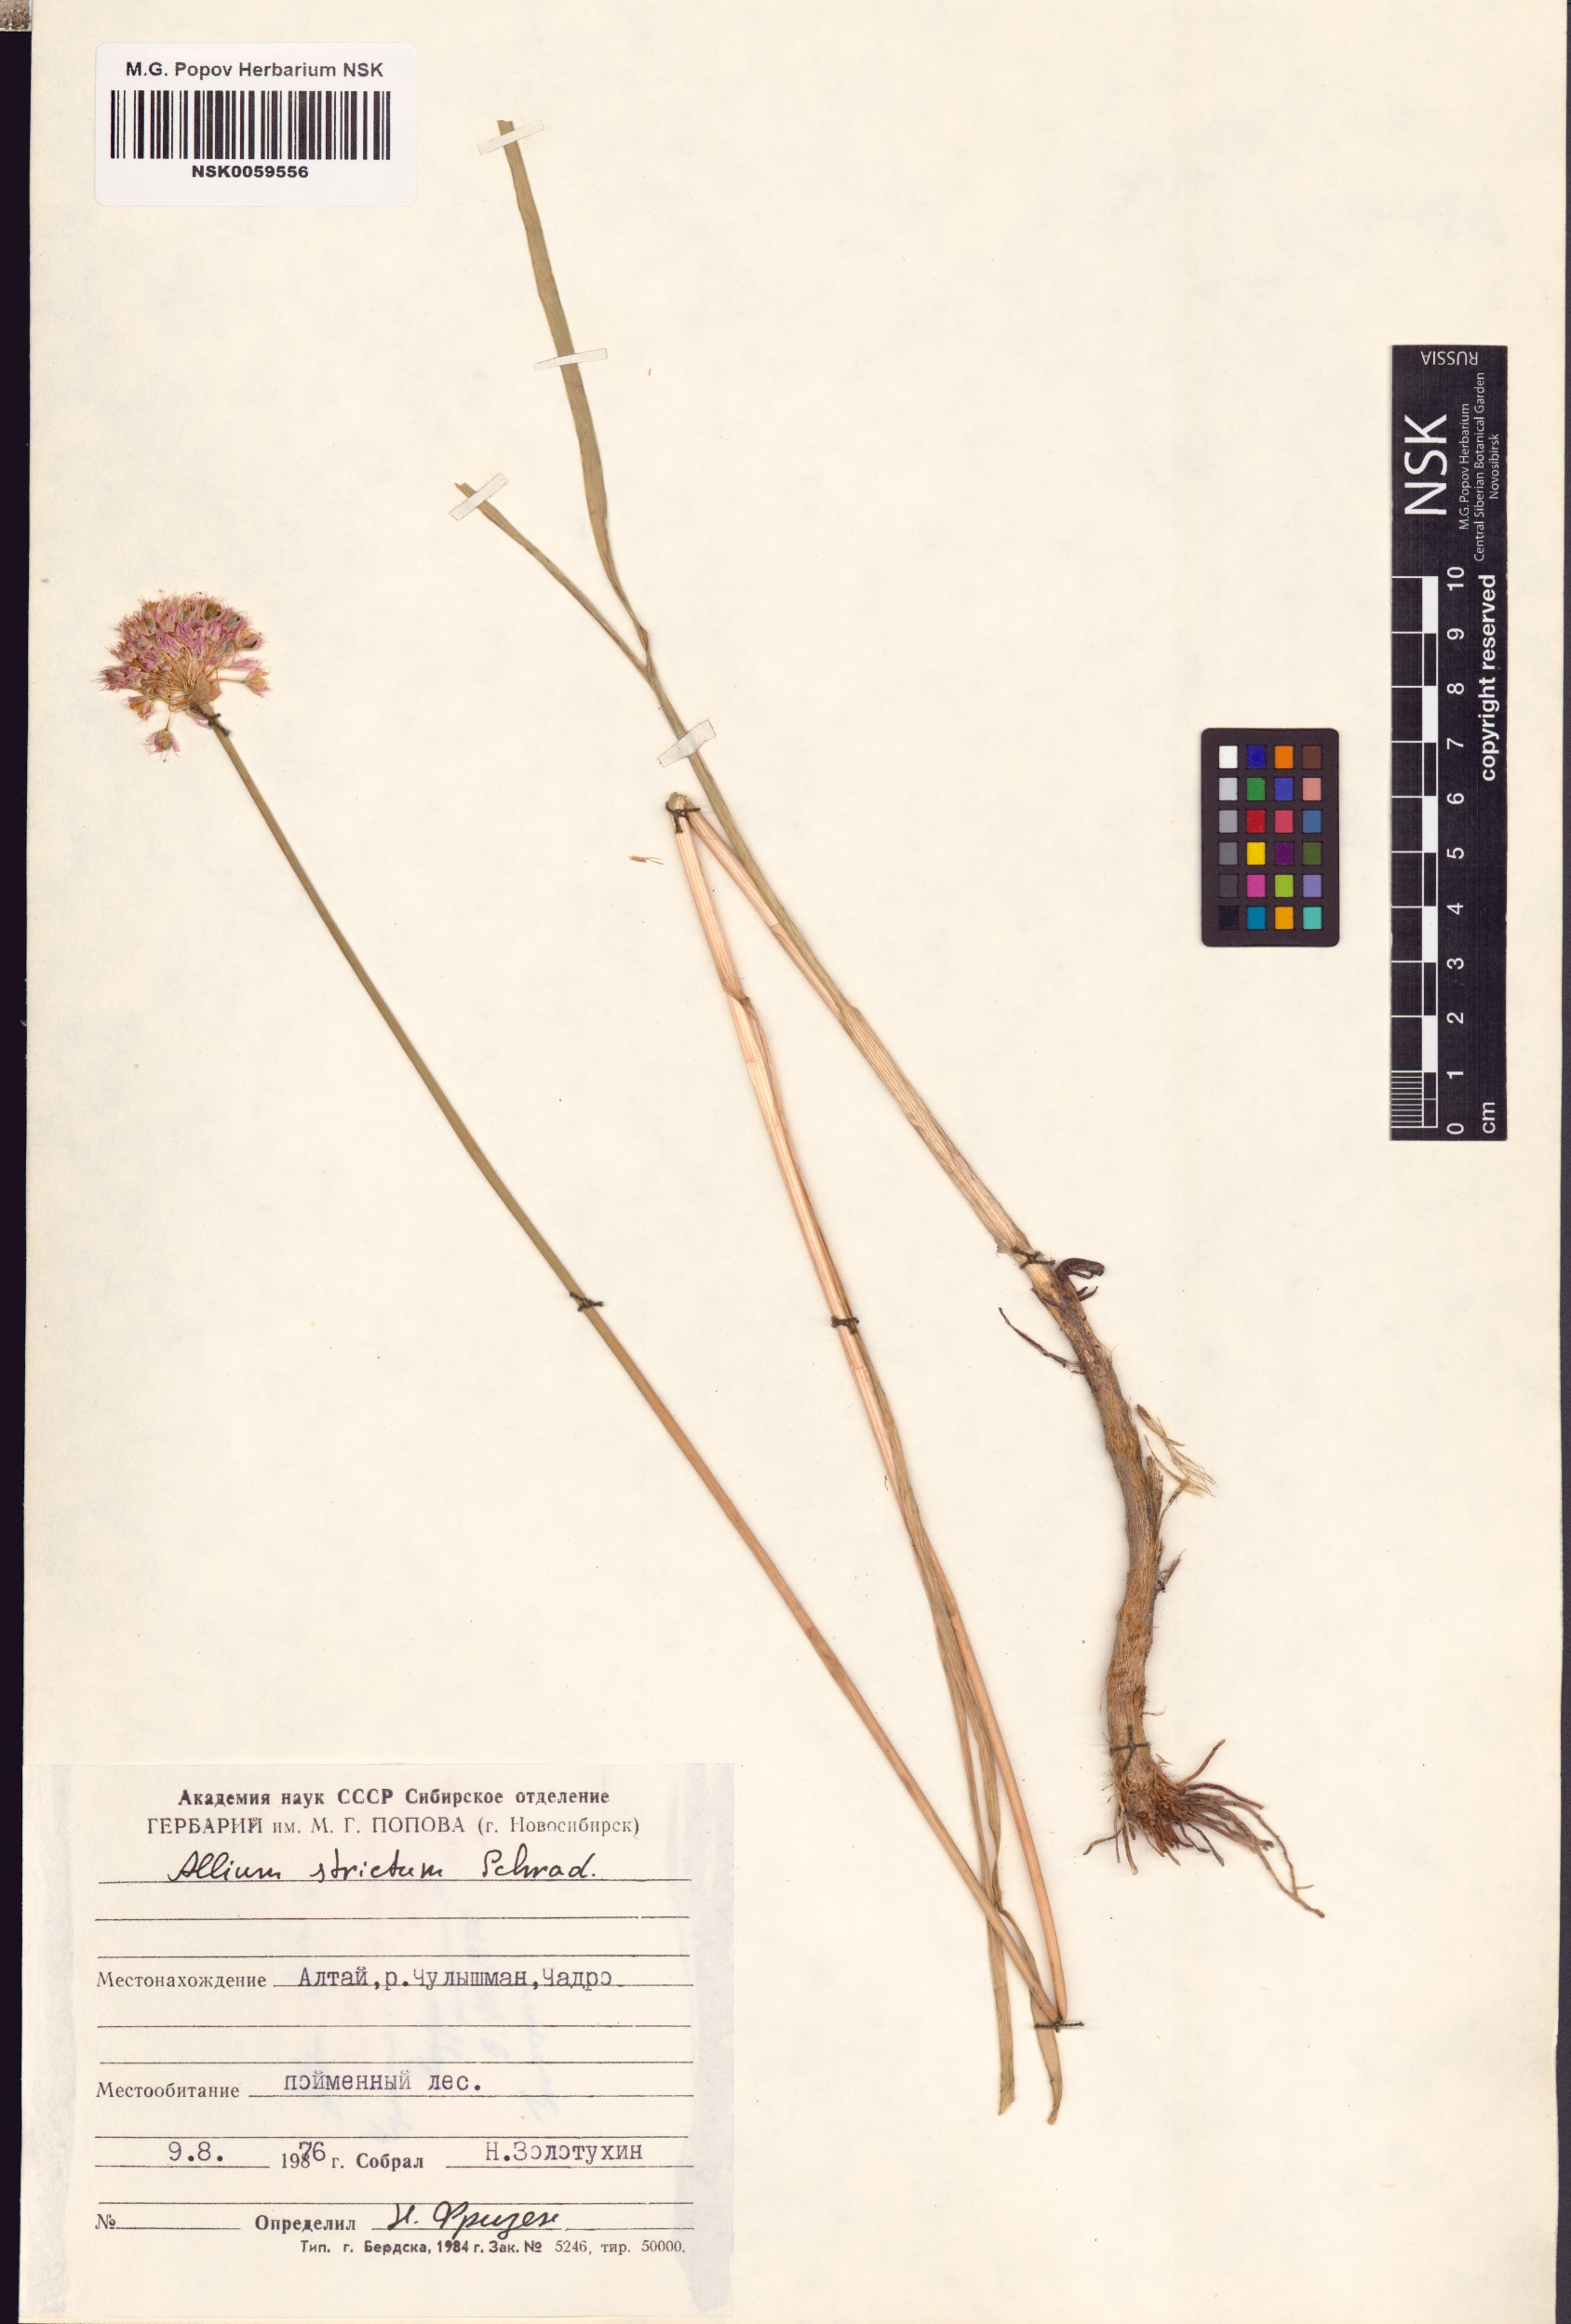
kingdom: Plantae
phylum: Tracheophyta
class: Liliopsida
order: Asparagales
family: Amaryllidaceae
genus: Allium
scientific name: Allium strictum
